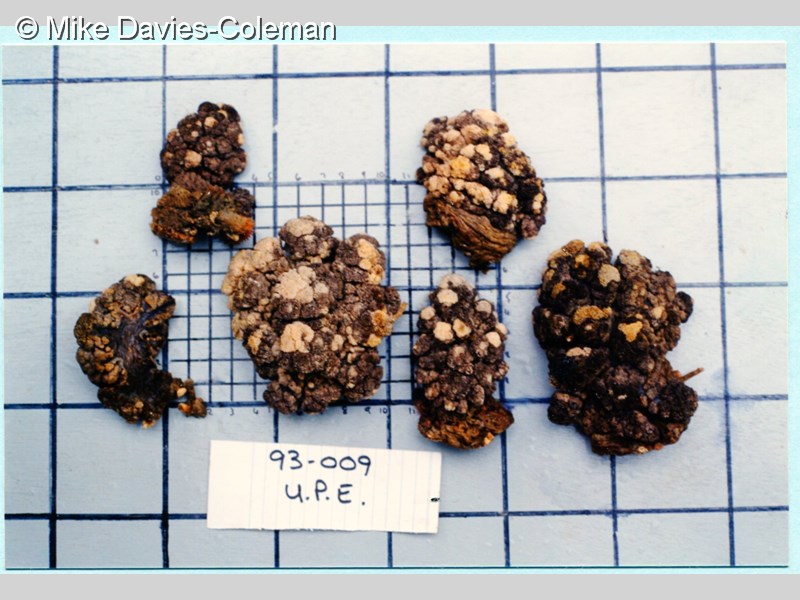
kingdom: Animalia
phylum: Cnidaria
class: Anthozoa
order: Malacalcyonacea
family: Capnellidae
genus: Eunephthya
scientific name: Eunephthya thyrsoidea
